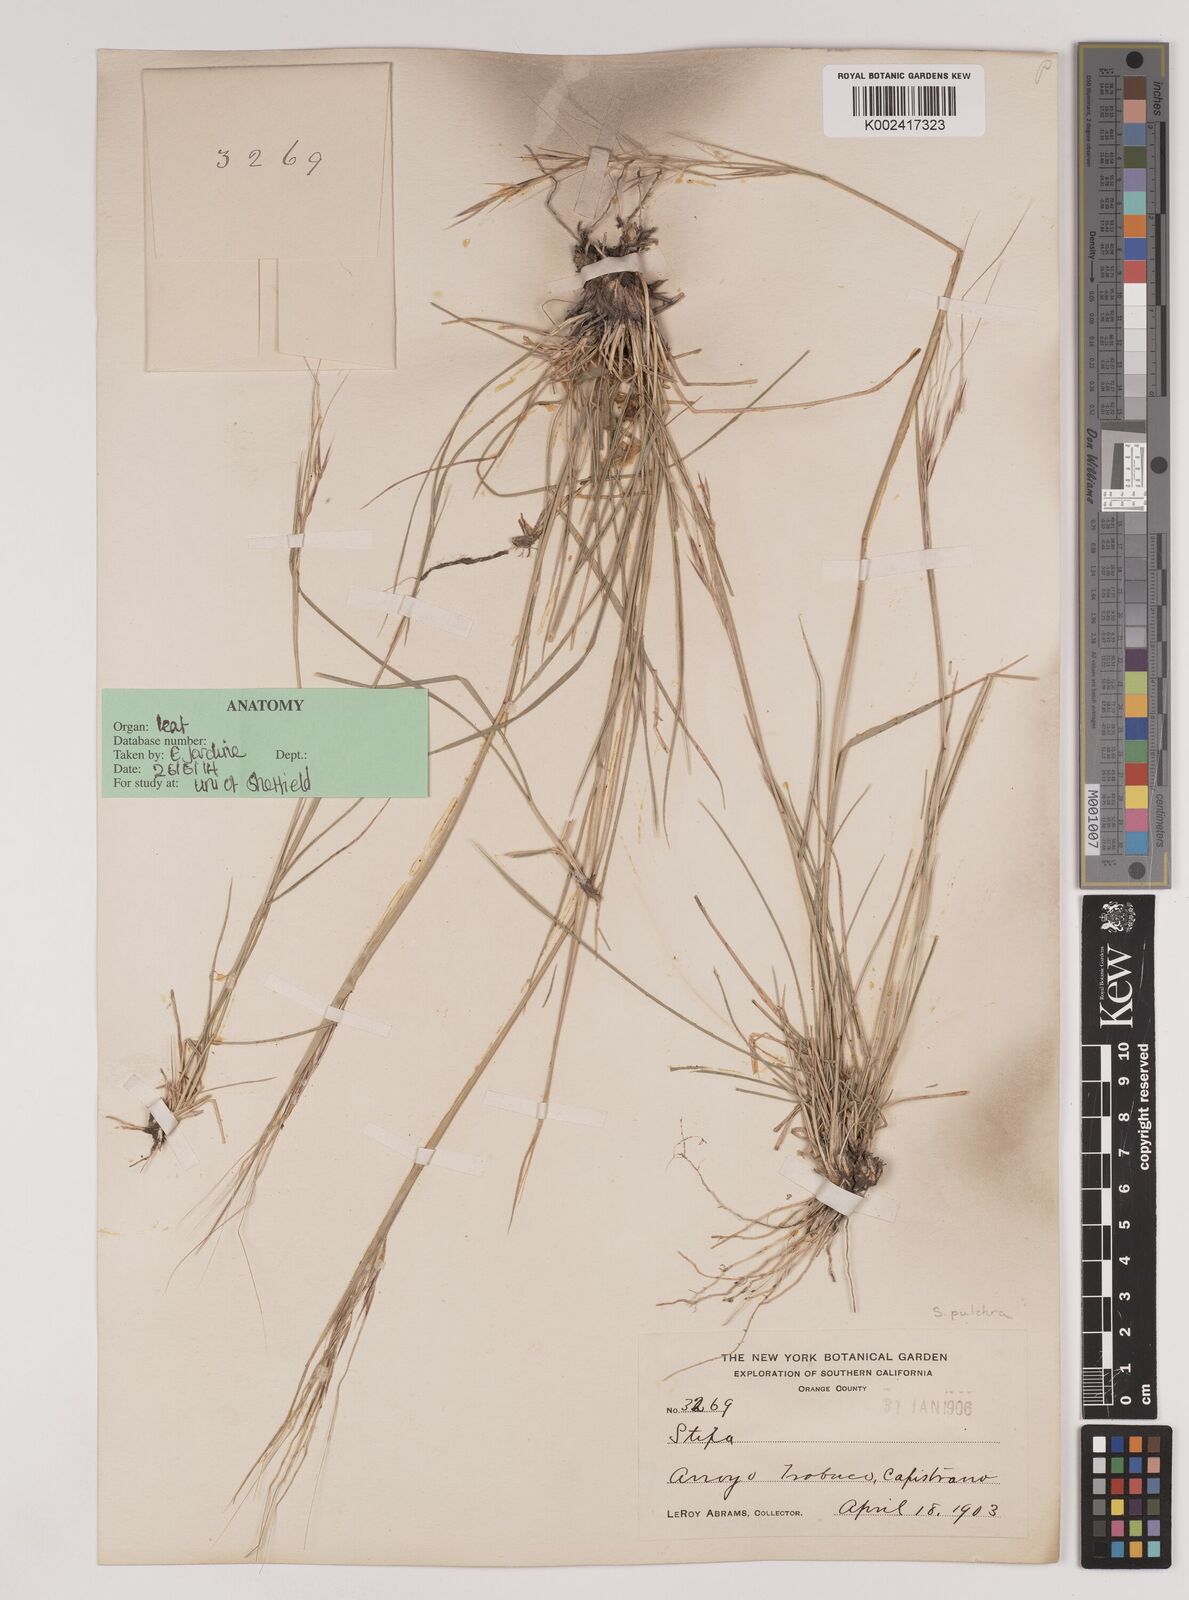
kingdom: Plantae
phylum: Tracheophyta
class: Liliopsida
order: Poales
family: Poaceae
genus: Nassella
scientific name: Nassella pulchra
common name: Purple needlegrass
